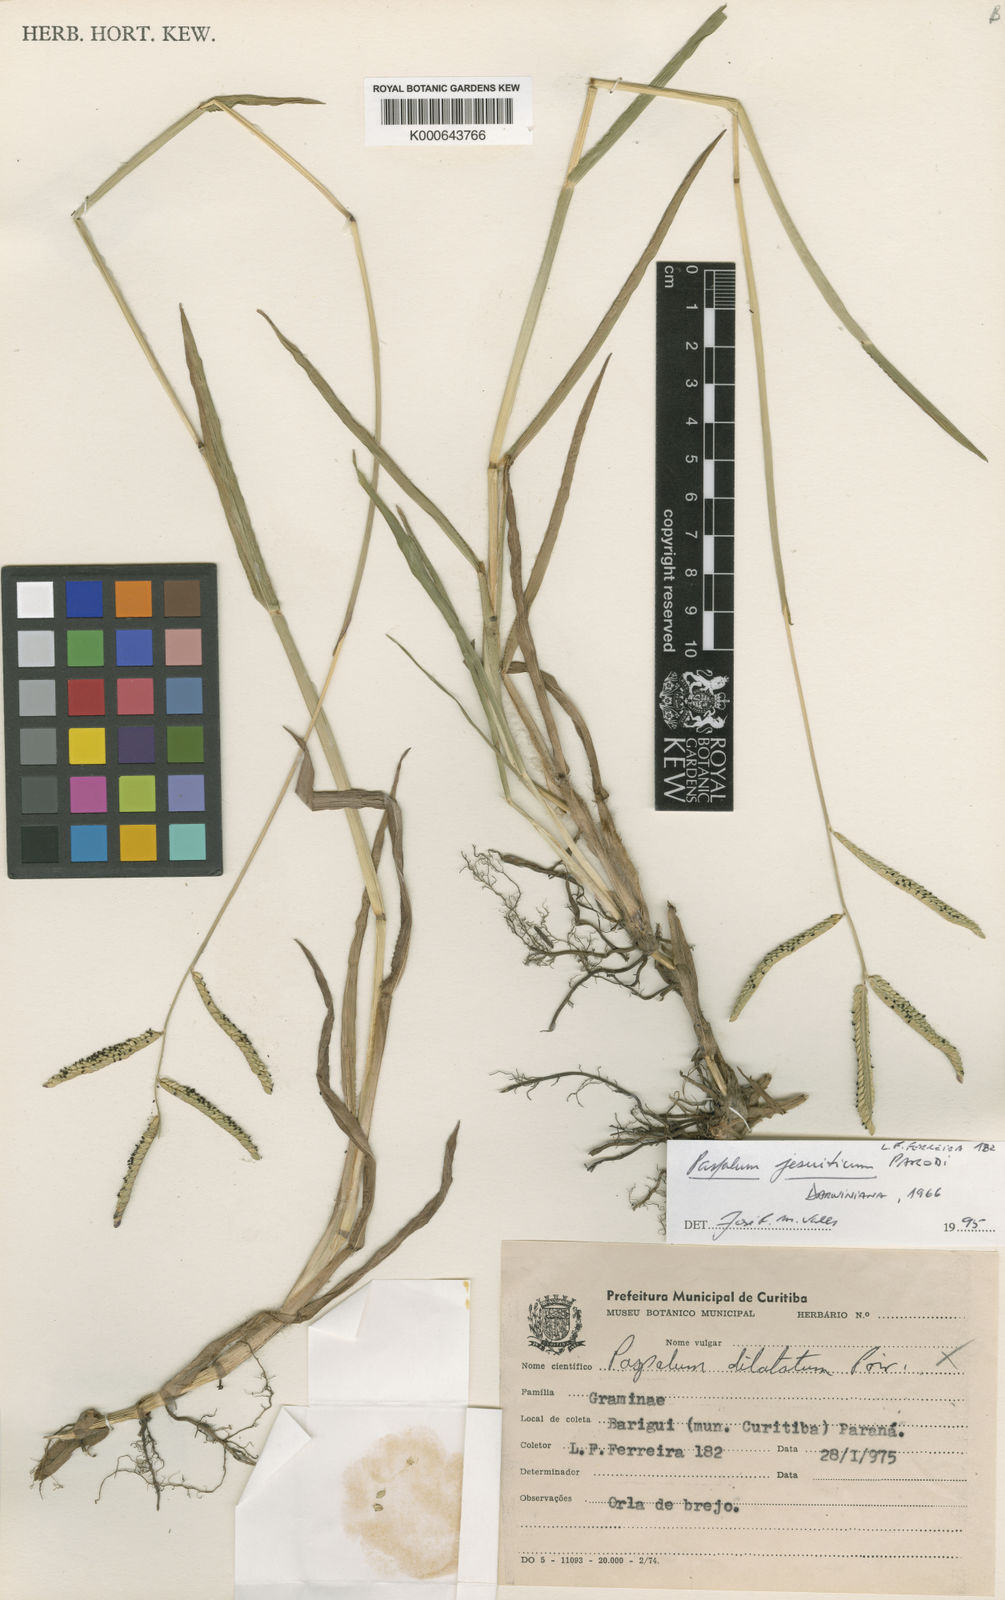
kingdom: Plantae
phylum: Tracheophyta
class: Liliopsida
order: Poales
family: Poaceae
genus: Paspalum
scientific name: Paspalum jesuiticum
